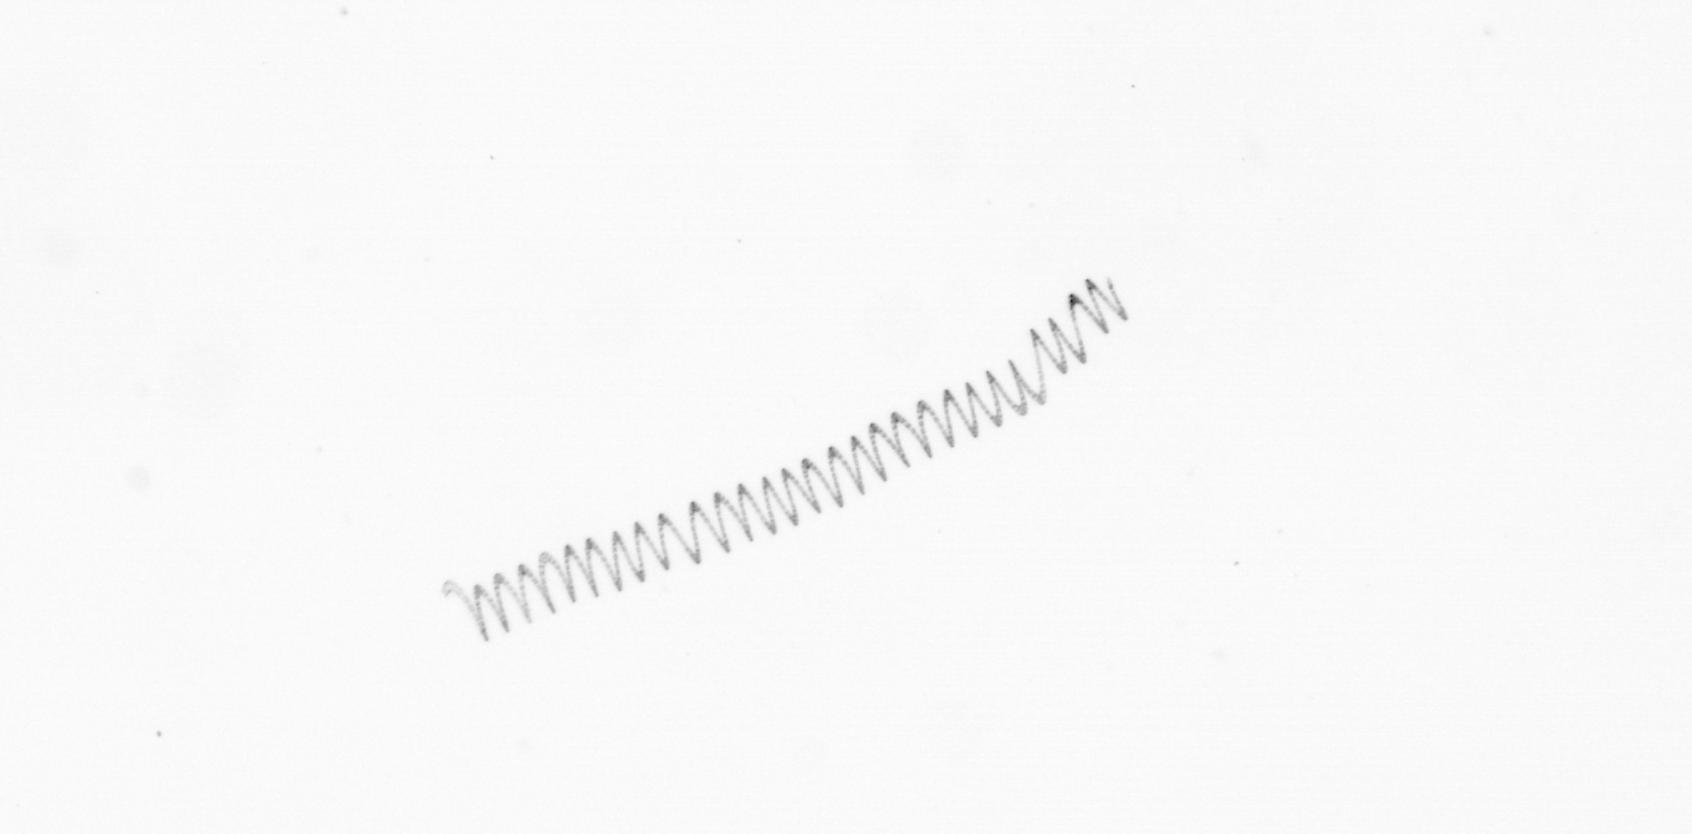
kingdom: Chromista
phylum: Ochrophyta
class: Bacillariophyceae
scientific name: Bacillariophyceae
